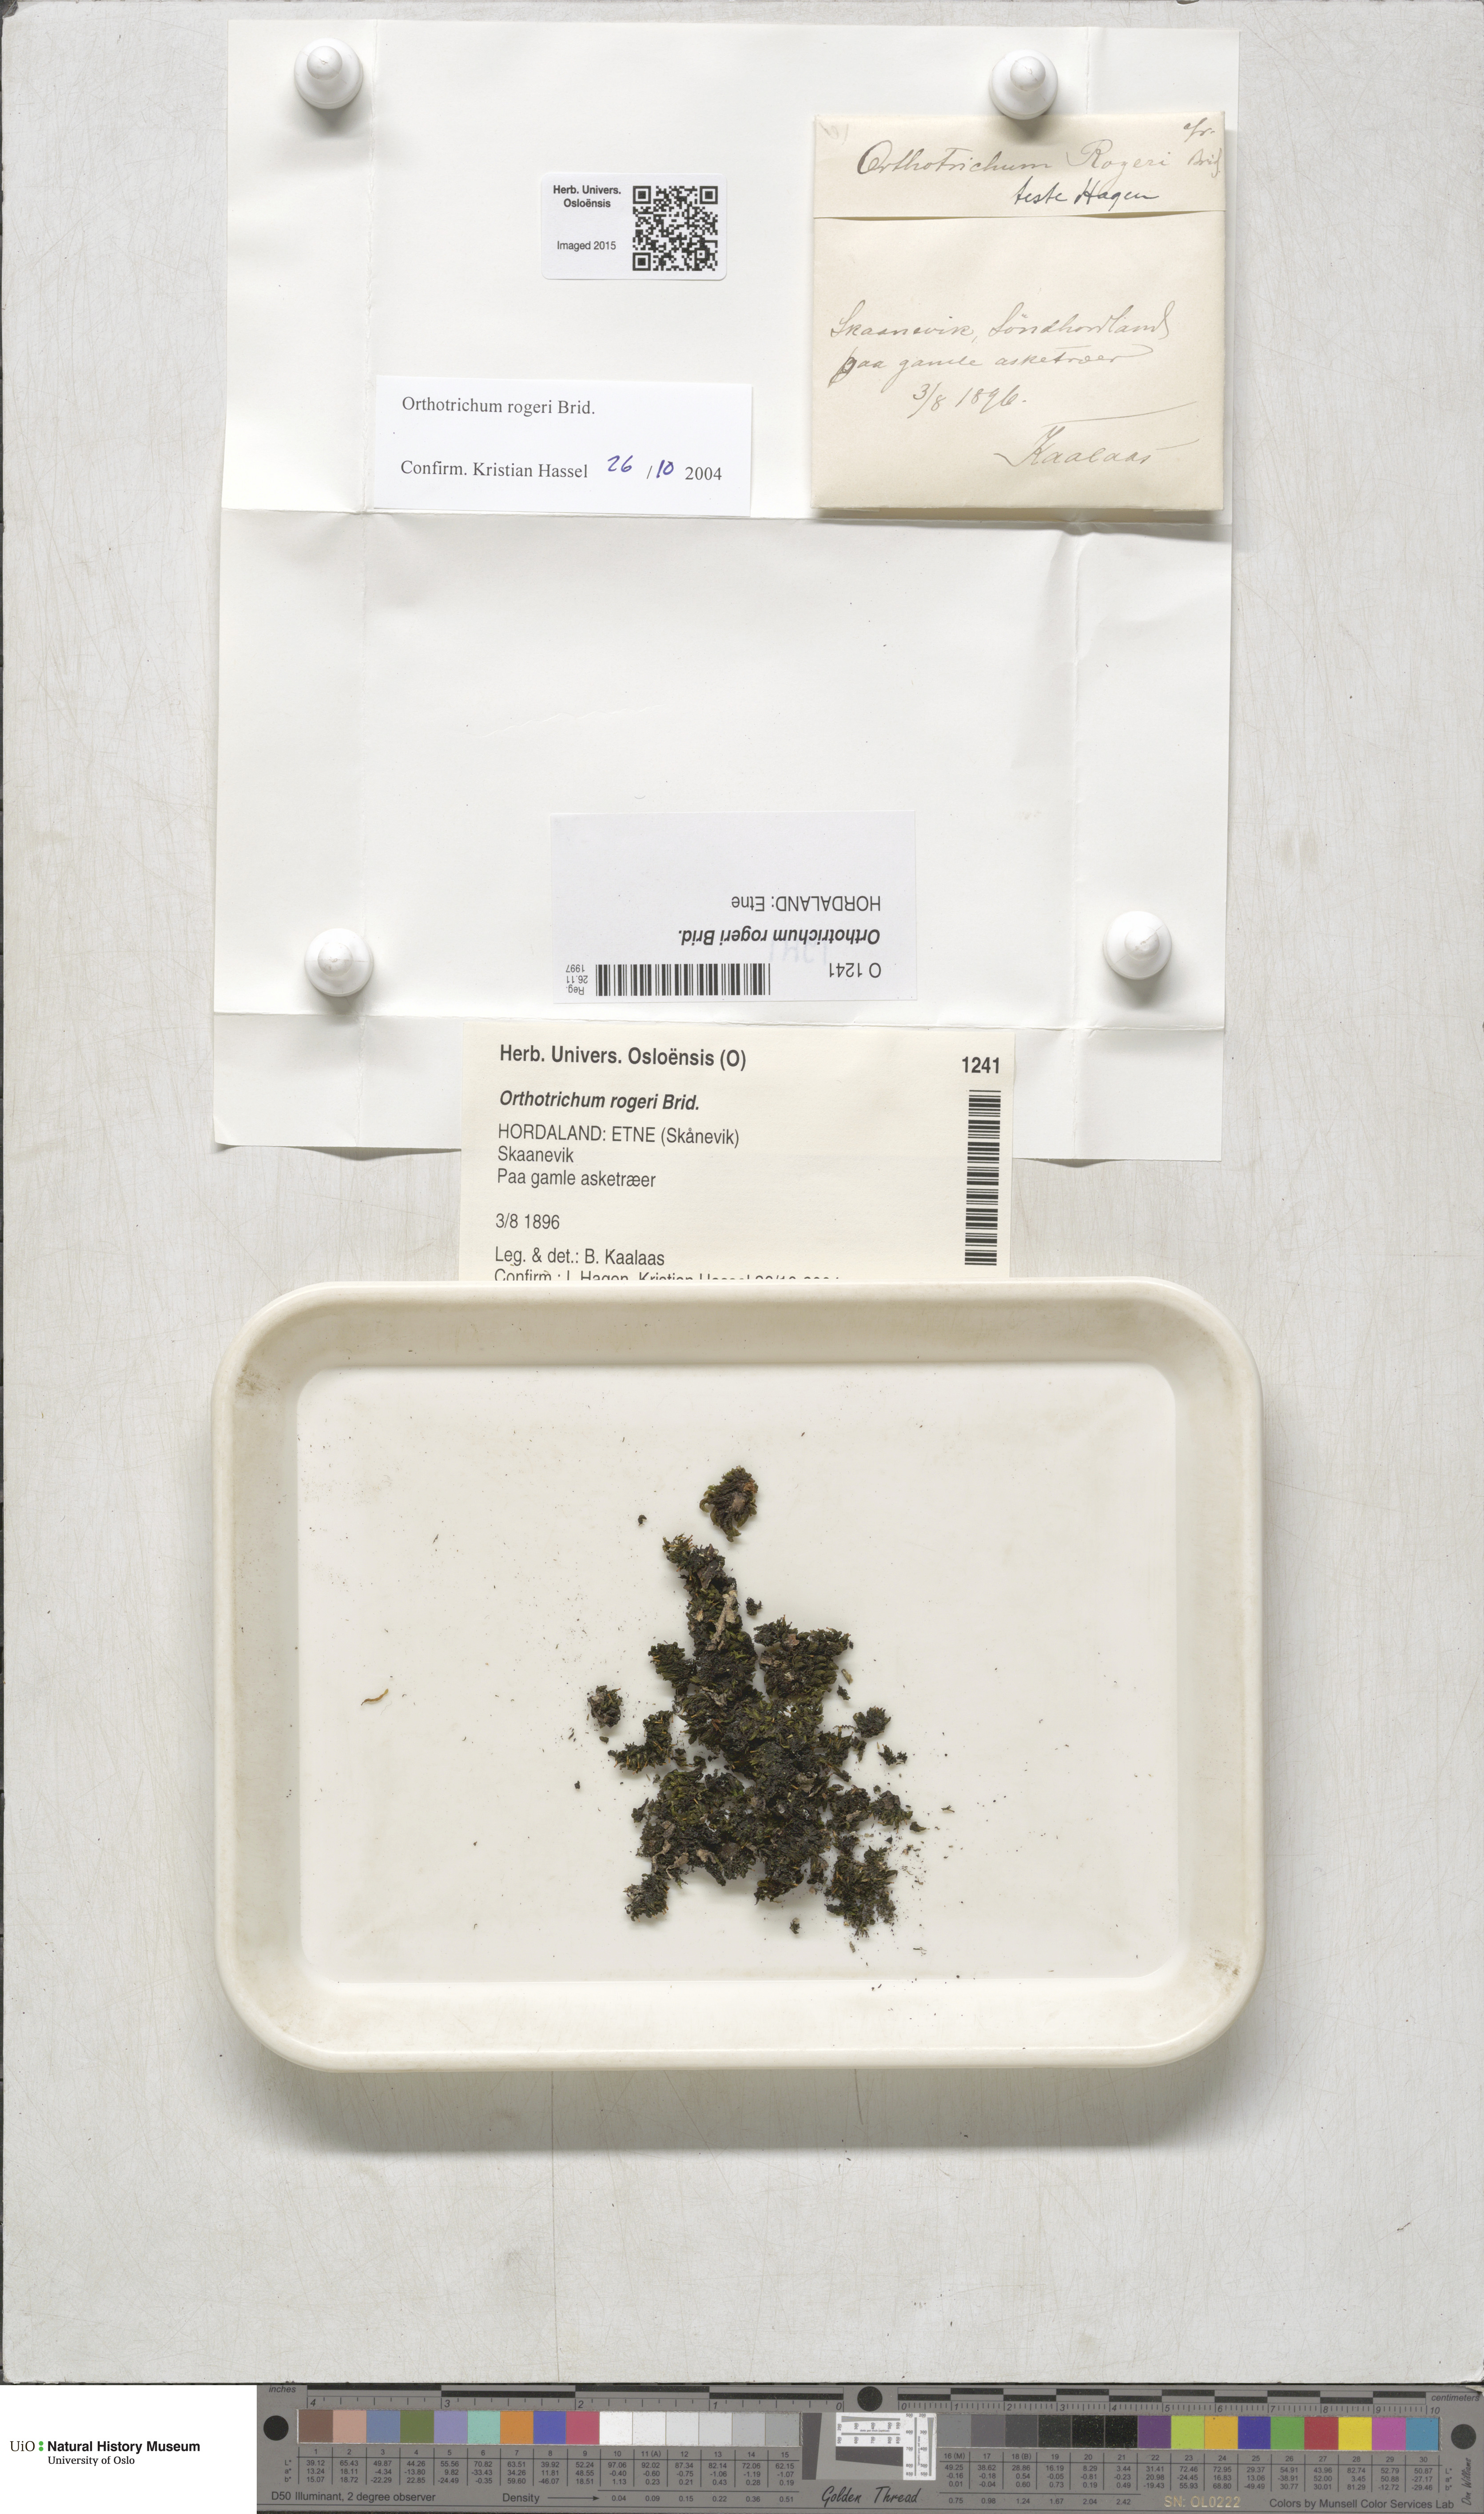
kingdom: Plantae
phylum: Bryophyta
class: Bryopsida
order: Orthotrichales
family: Orthotrichaceae
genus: Orthotrichum
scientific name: Orthotrichum rogeri
